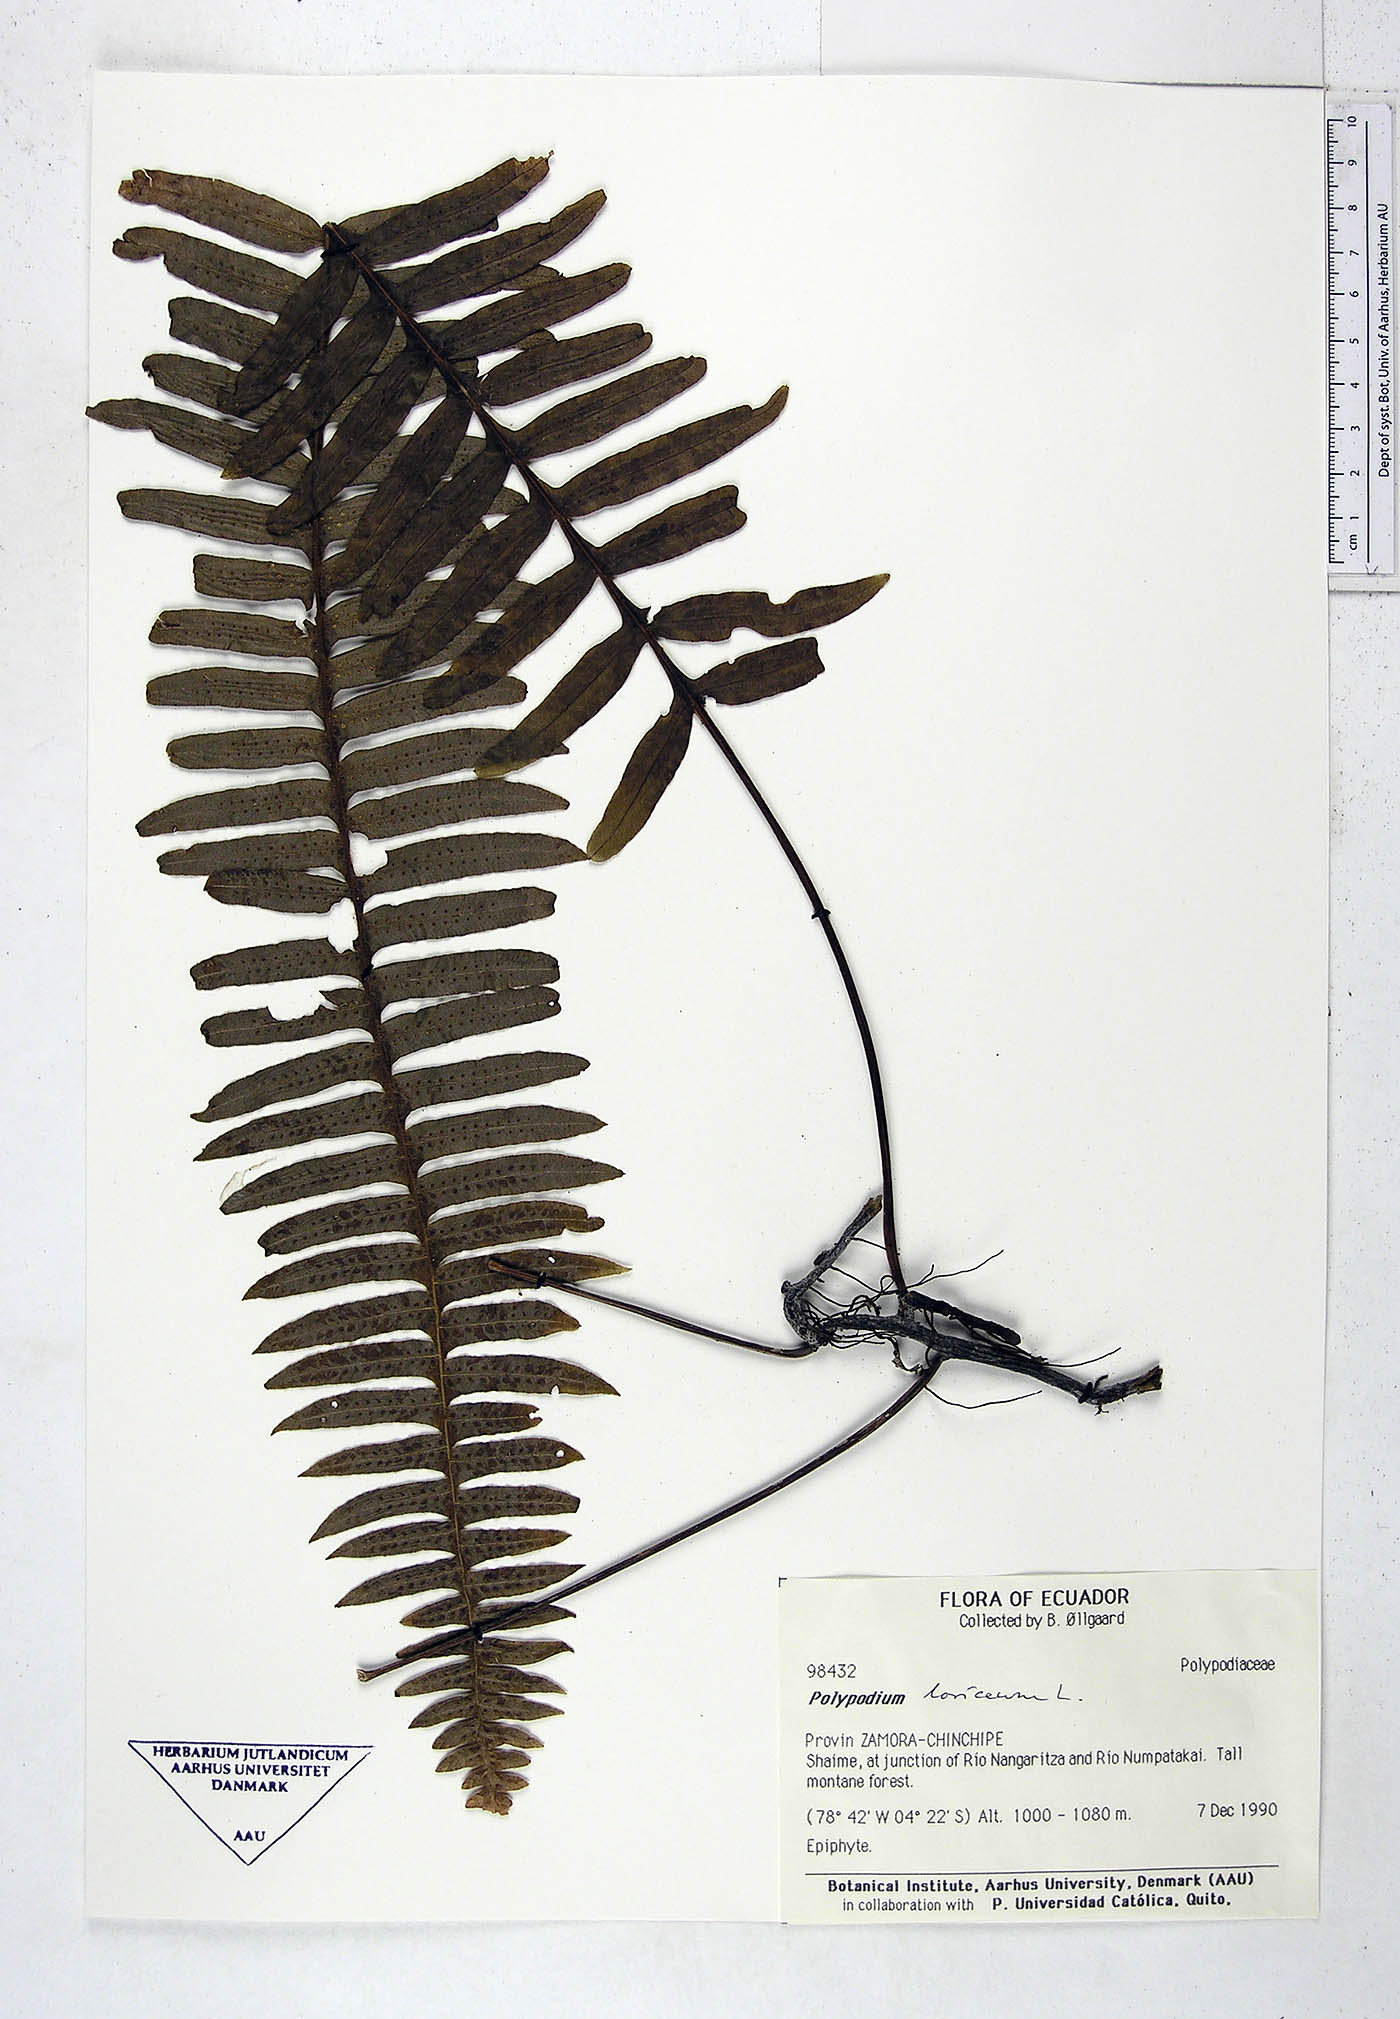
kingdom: Plantae
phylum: Tracheophyta
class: Polypodiopsida
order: Polypodiales
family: Polypodiaceae
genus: Serpocaulon
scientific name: Serpocaulon loriceum
